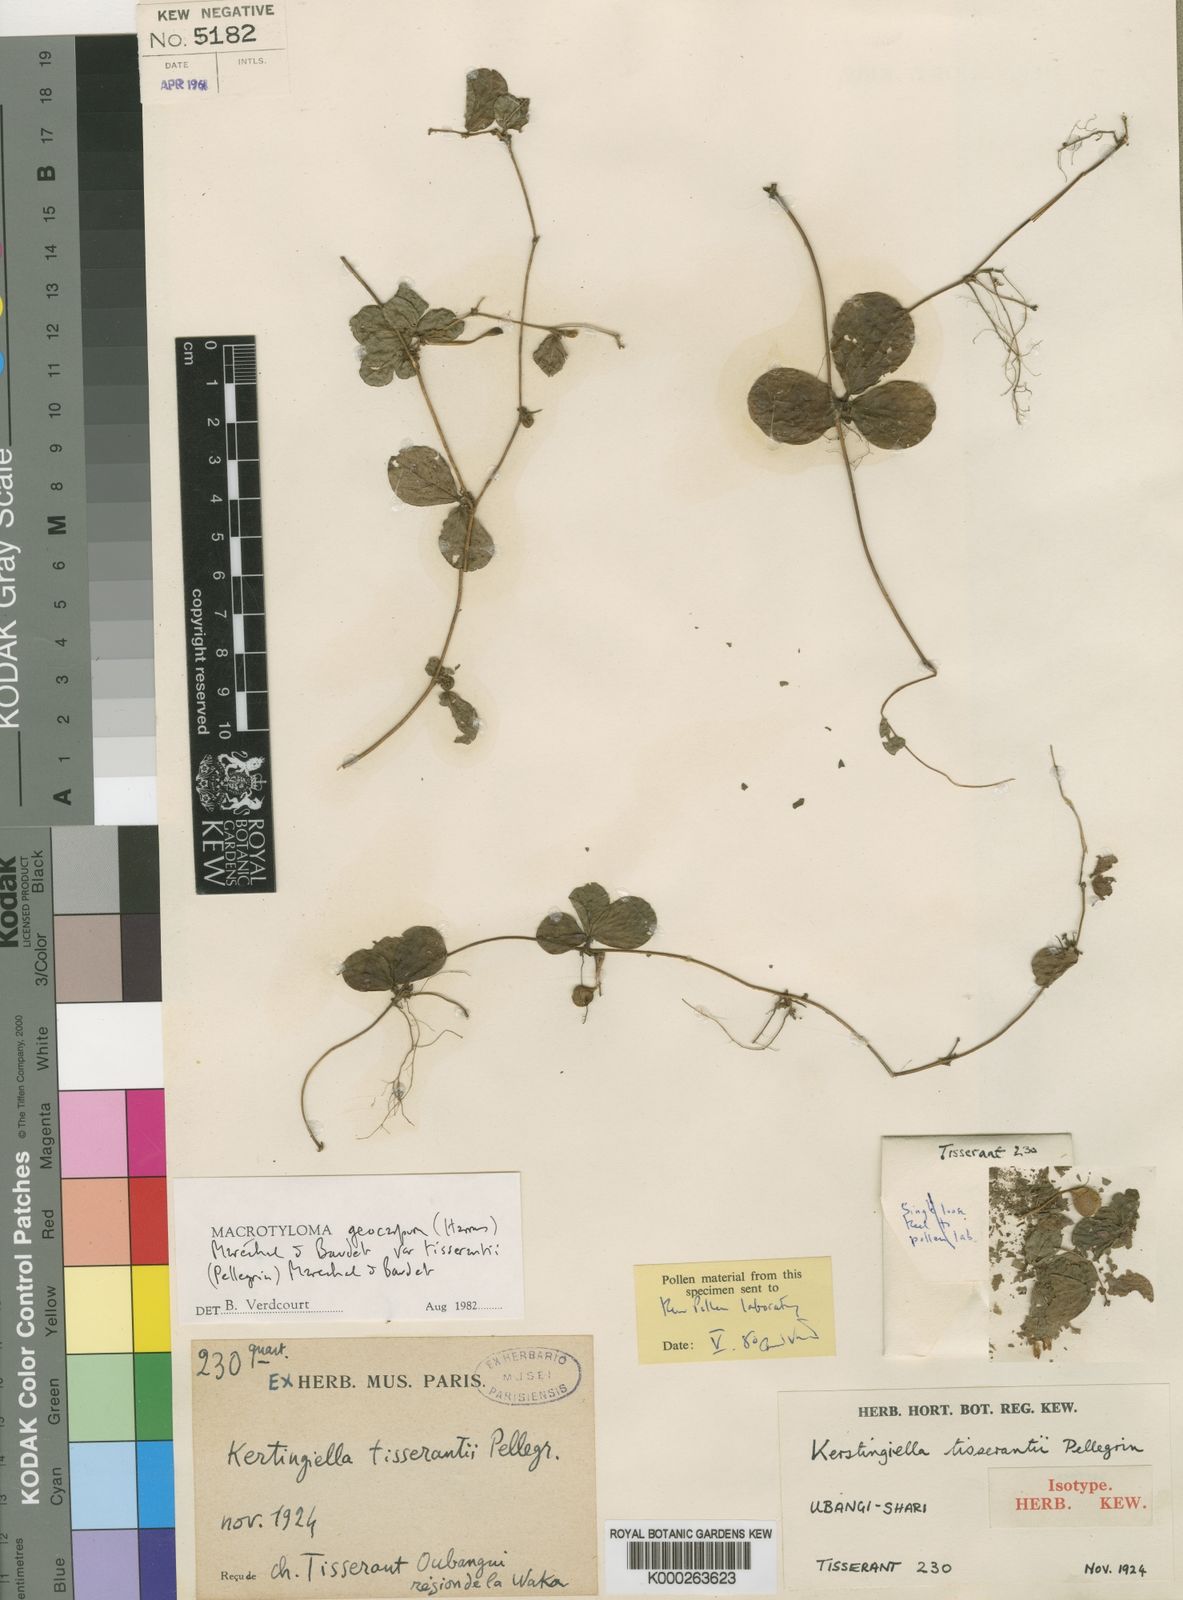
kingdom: Plantae
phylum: Tracheophyta
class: Magnoliopsida
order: Fabales
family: Fabaceae
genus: Macrotyloma
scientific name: Macrotyloma geocarpum
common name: Ground-bean
